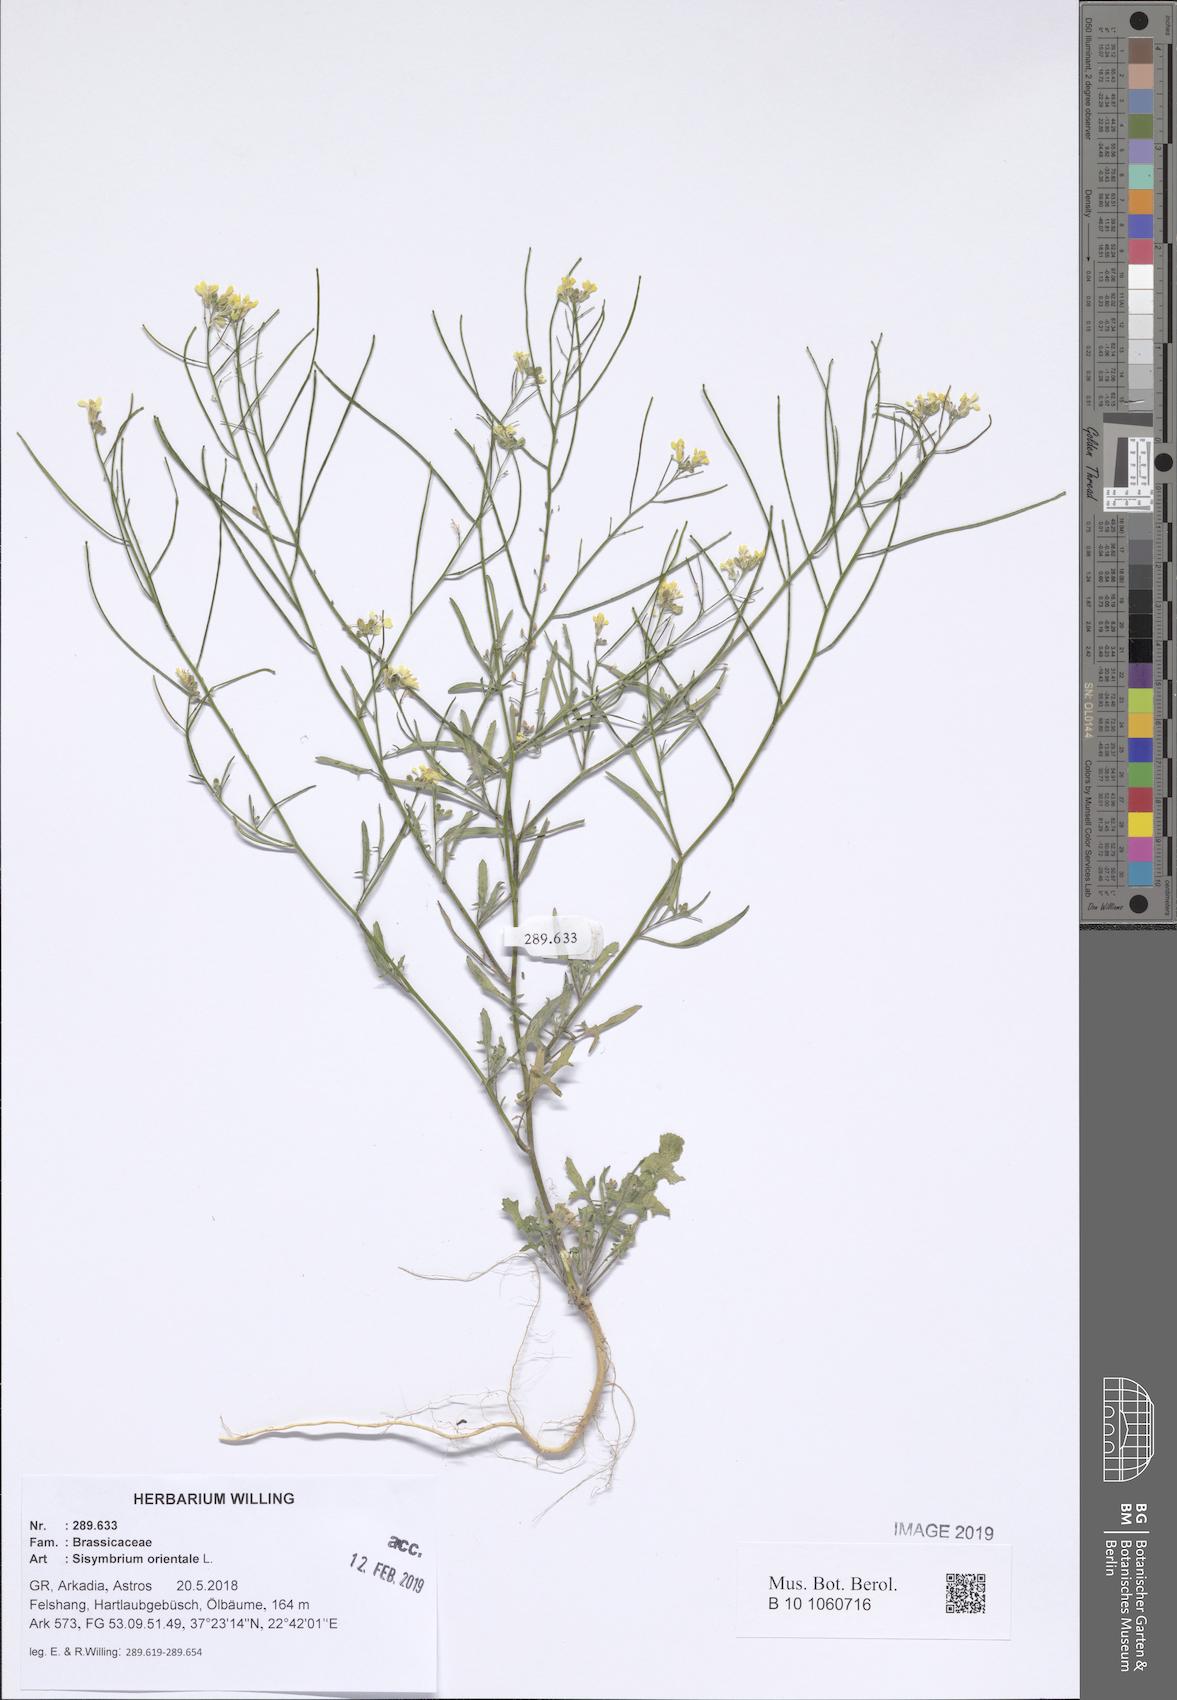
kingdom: Plantae
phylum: Tracheophyta
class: Magnoliopsida
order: Brassicales
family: Brassicaceae
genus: Sisymbrium
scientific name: Sisymbrium orientale
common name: Eastern rocket
